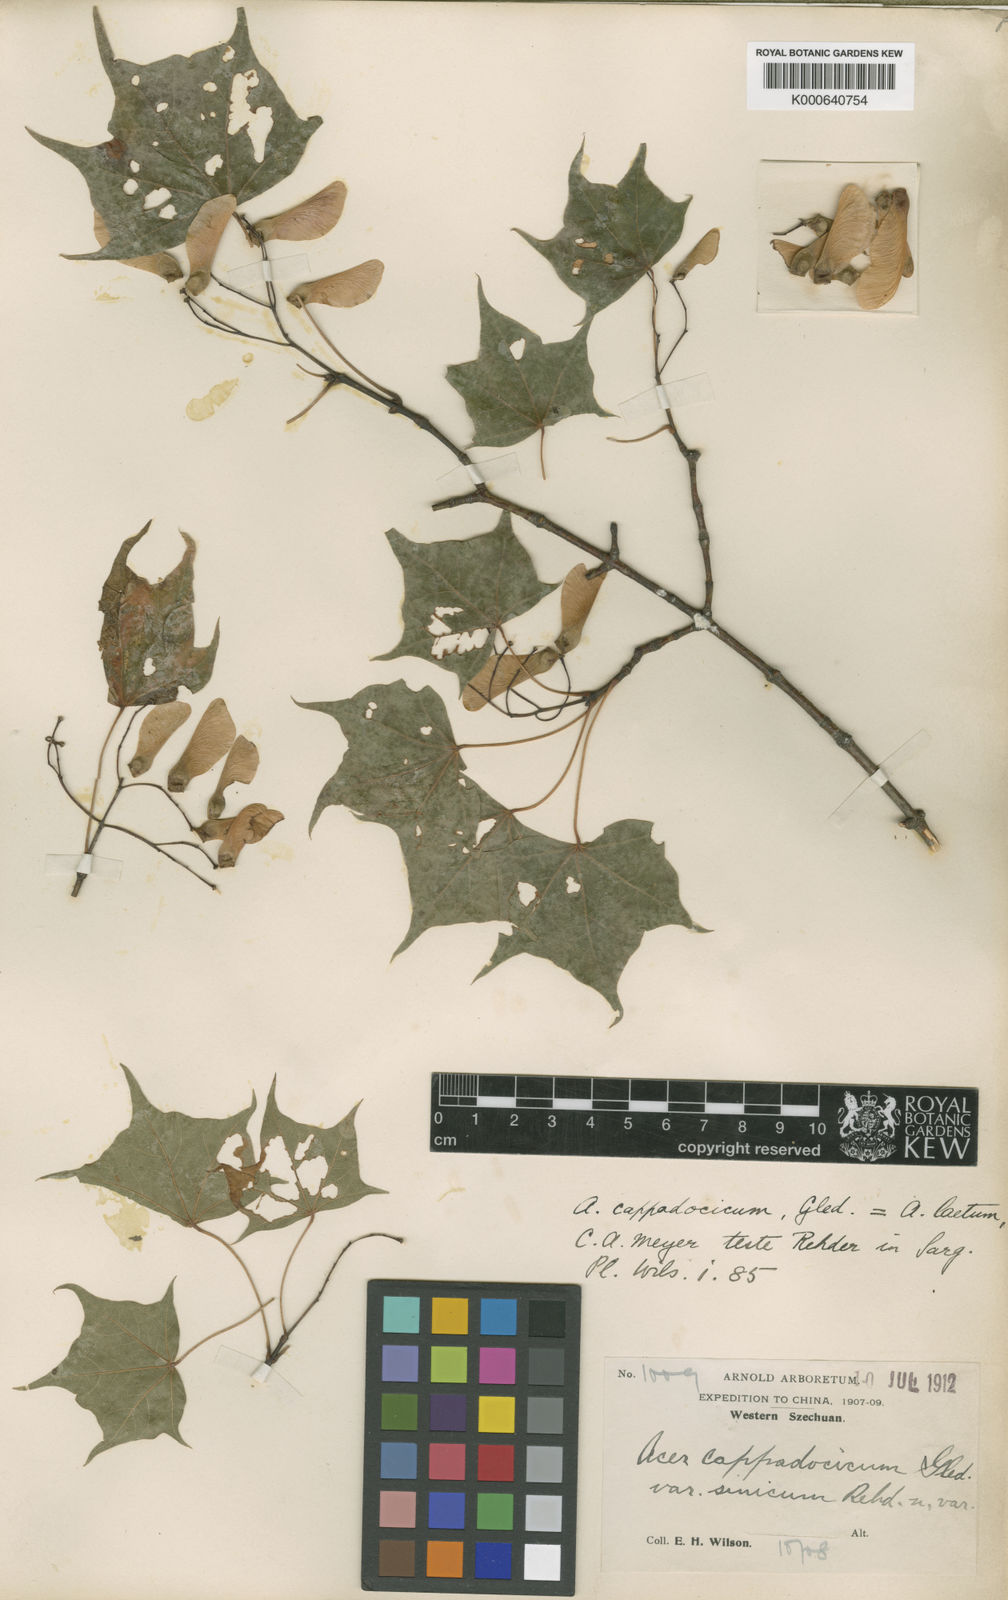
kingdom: Plantae
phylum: Tracheophyta
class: Magnoliopsida
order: Sapindales
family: Sapindaceae
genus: Acer
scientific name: Acer
